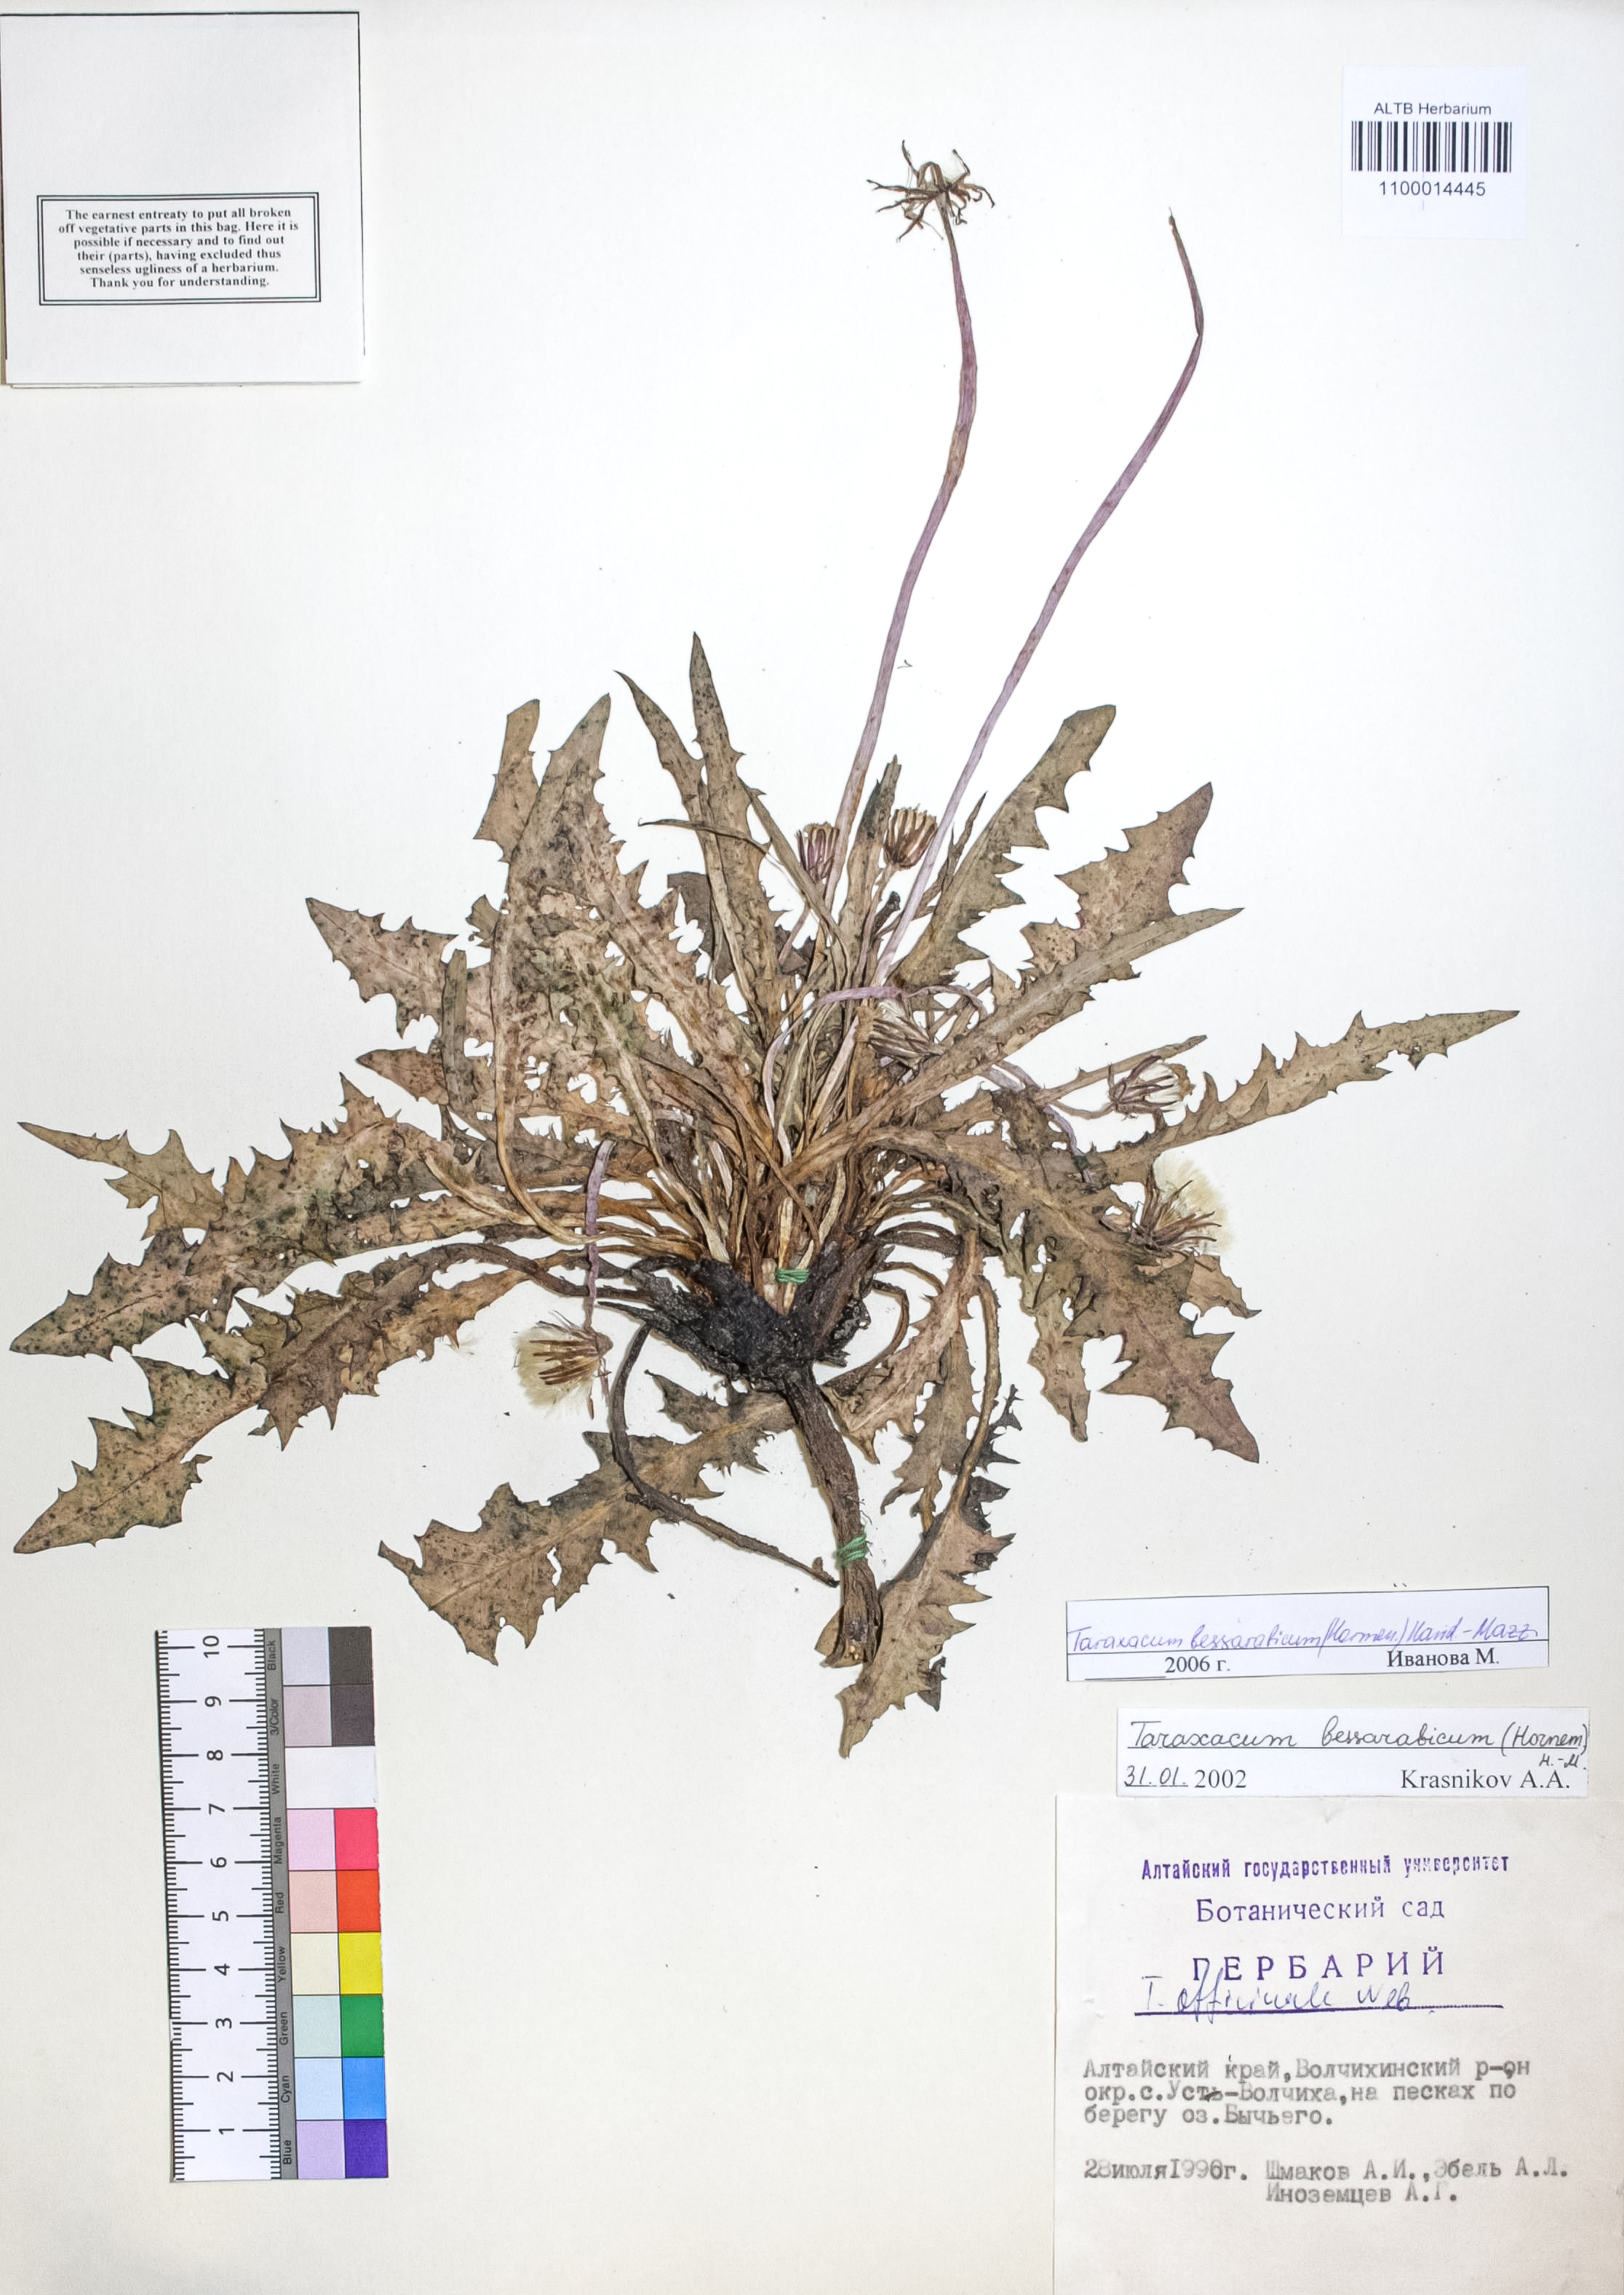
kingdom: Plantae
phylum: Tracheophyta
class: Magnoliopsida
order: Asterales
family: Asteraceae
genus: Taraxacum
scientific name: Taraxacum bessarabicum
